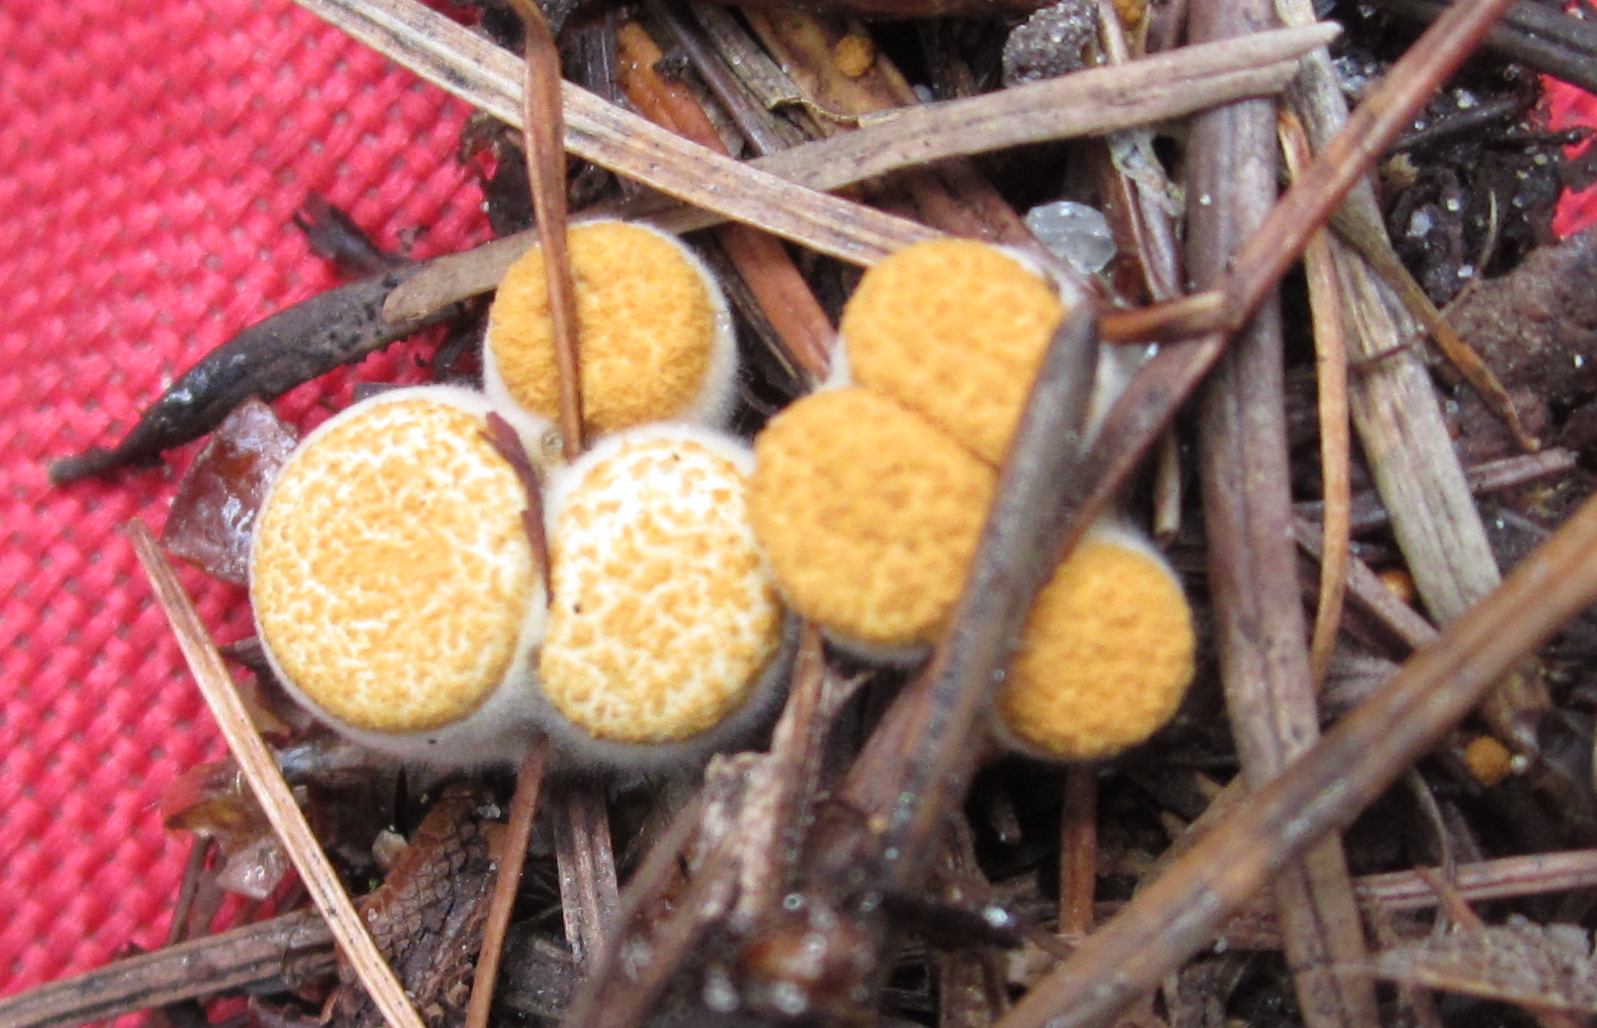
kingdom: Fungi
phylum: Basidiomycota
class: Agaricomycetes
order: Agaricales
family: Nidulariaceae
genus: Crucibulum
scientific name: Crucibulum crucibuliforme
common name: krukkesvamp
